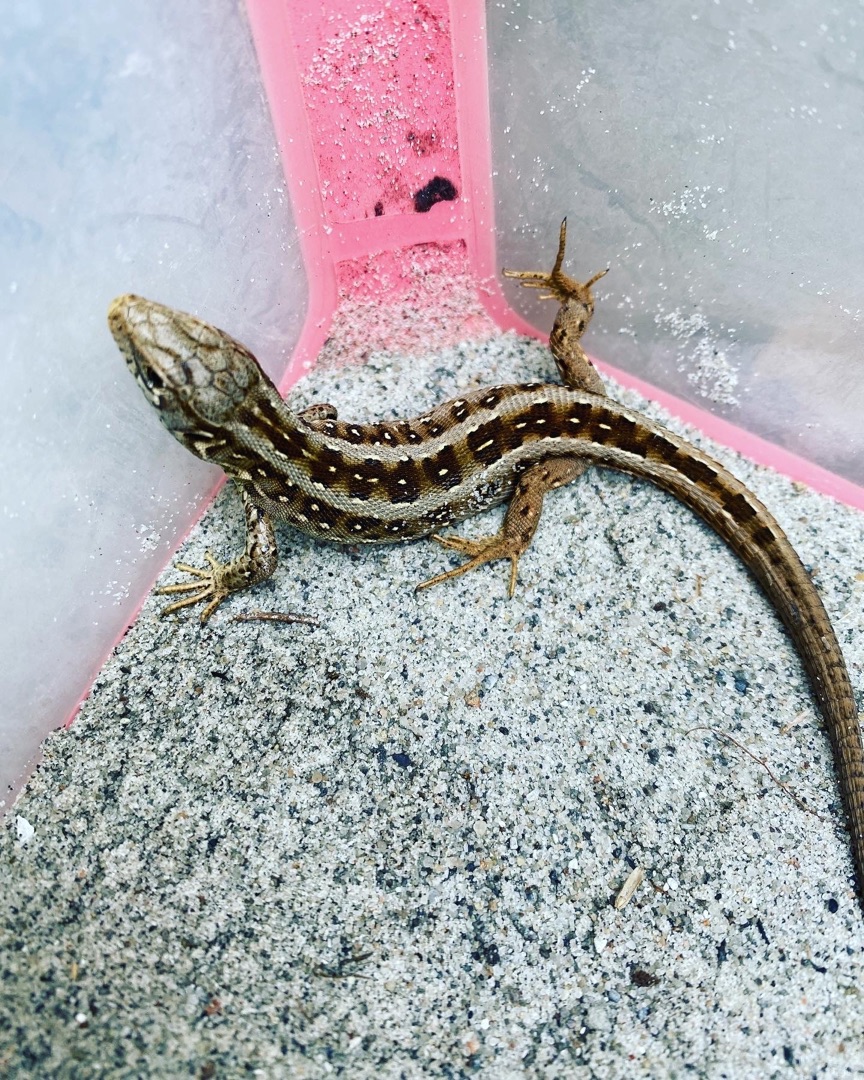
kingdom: Animalia
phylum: Chordata
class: Squamata
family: Lacertidae
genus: Lacerta
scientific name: Lacerta agilis
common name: Markfirben
